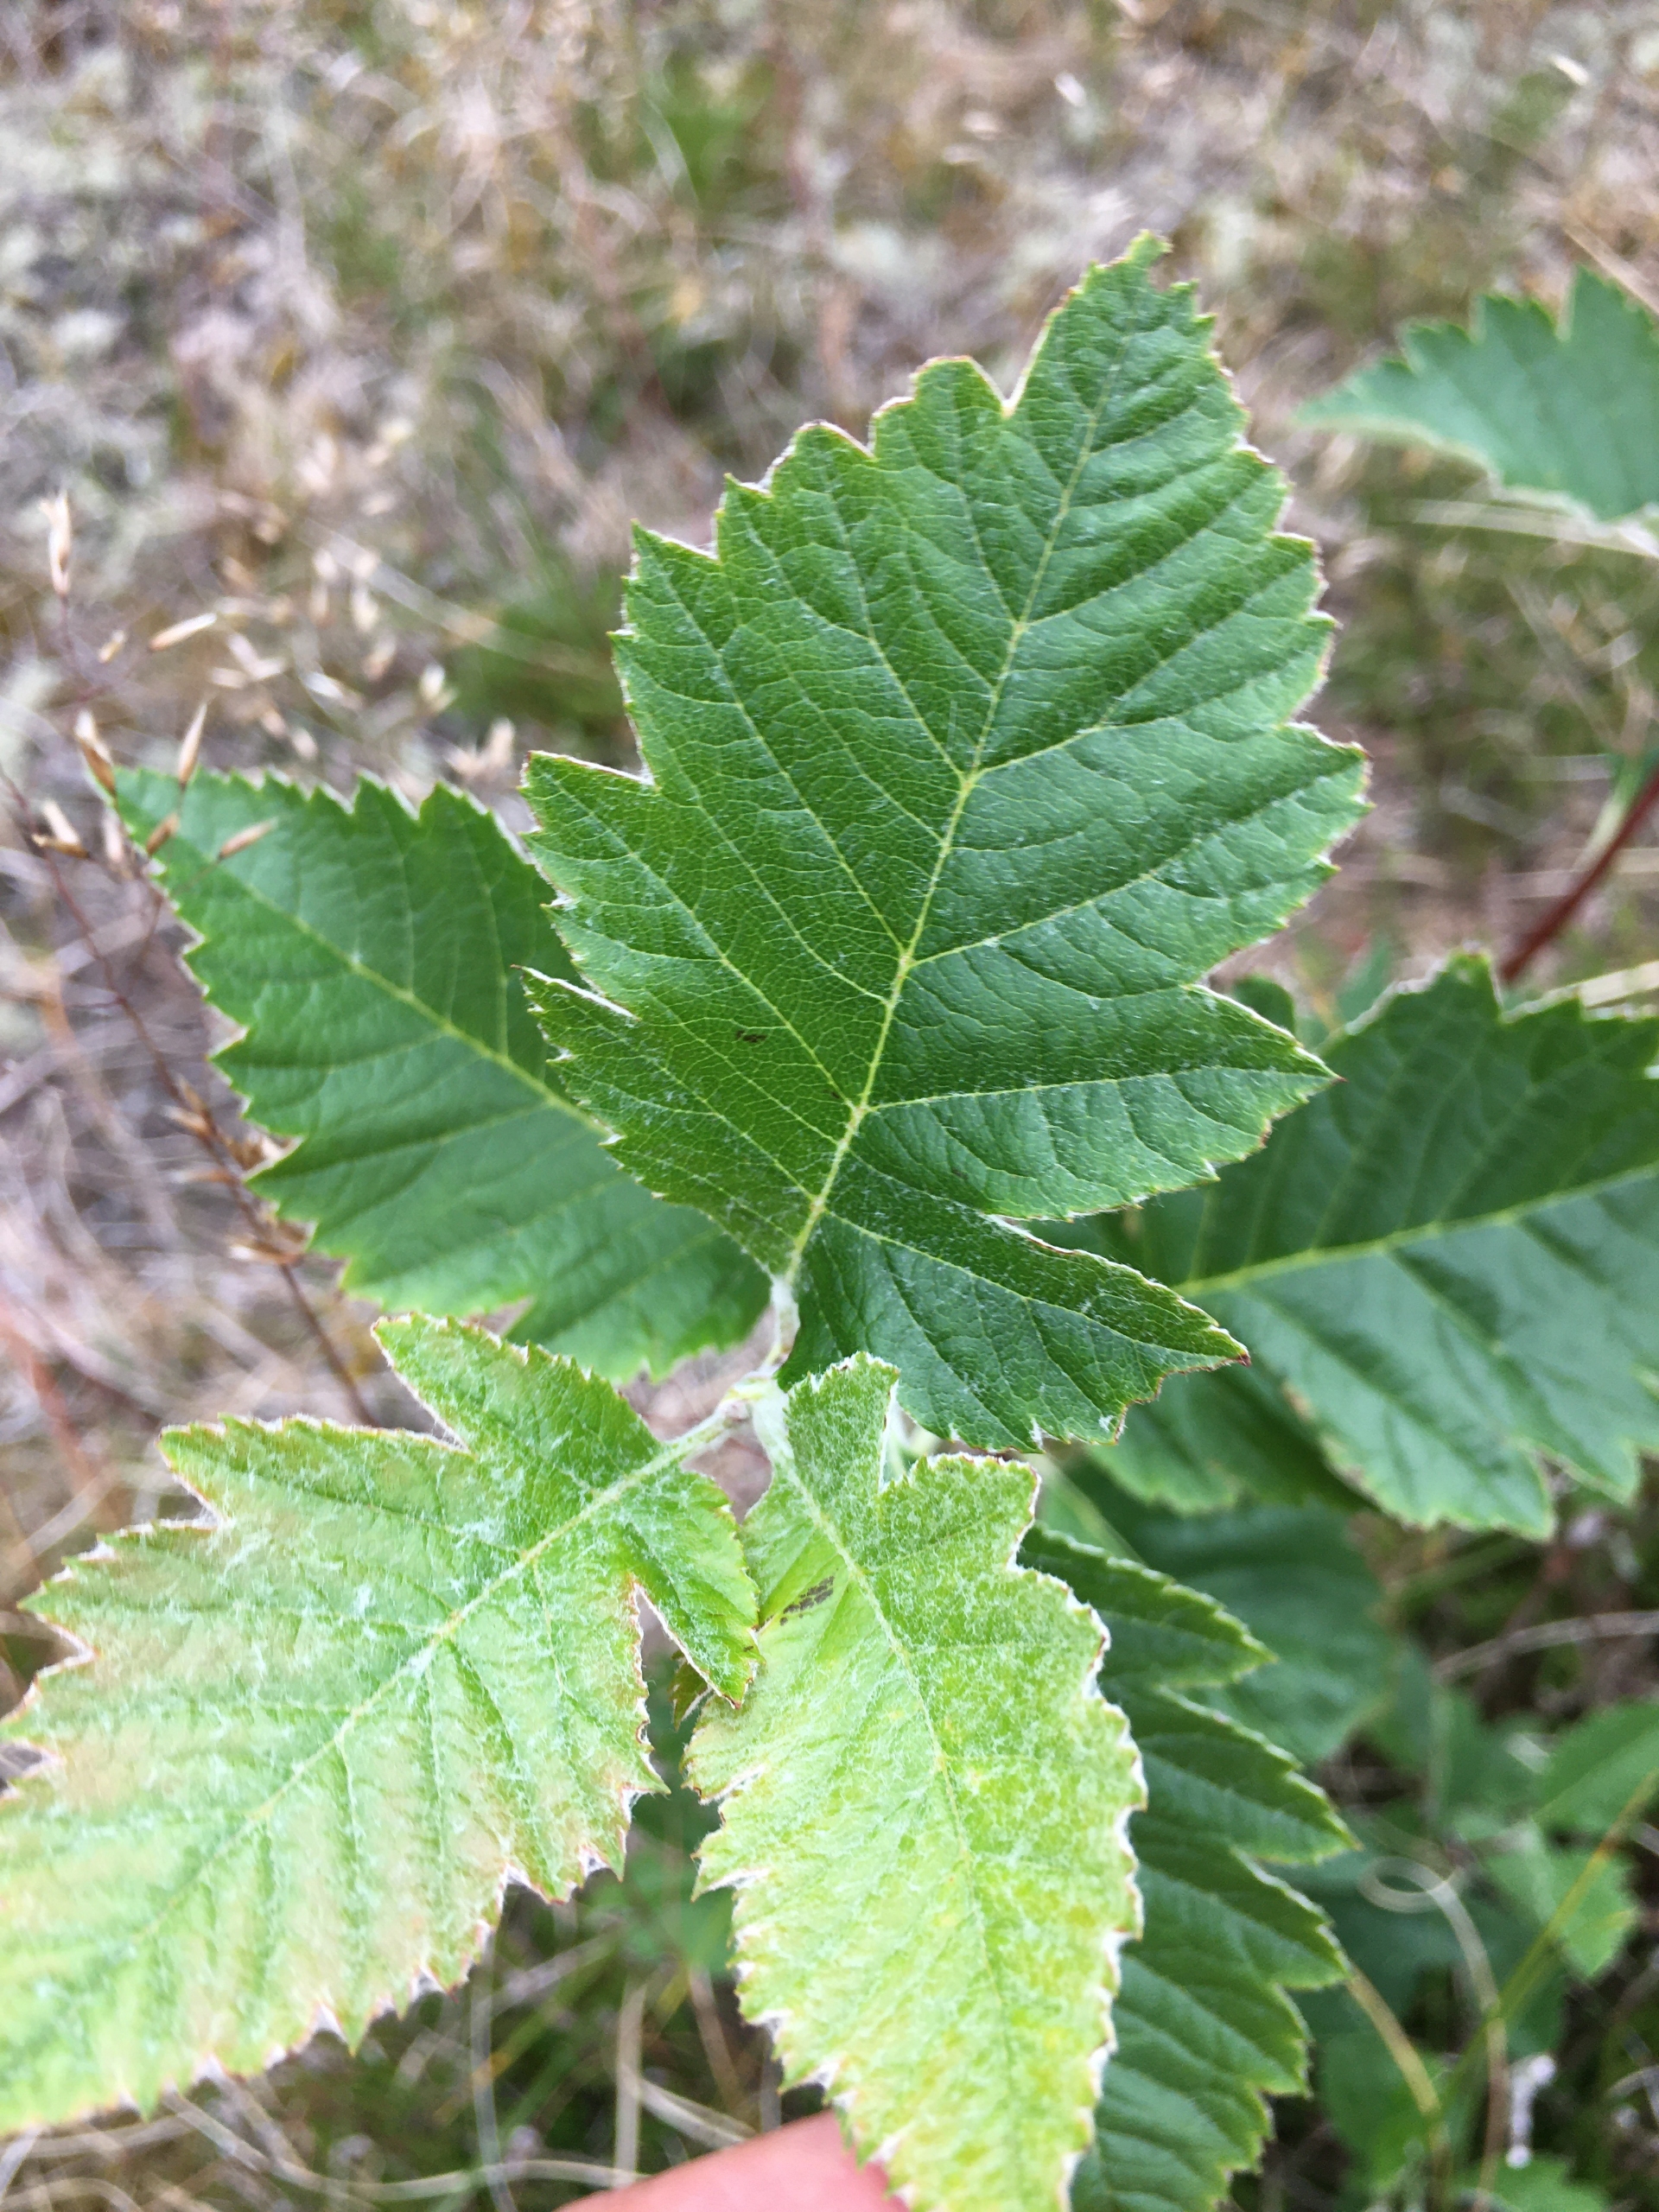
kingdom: Plantae
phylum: Tracheophyta
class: Magnoliopsida
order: Rosales
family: Rosaceae
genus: Scandosorbus
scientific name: Scandosorbus intermedia
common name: Selje-røn
